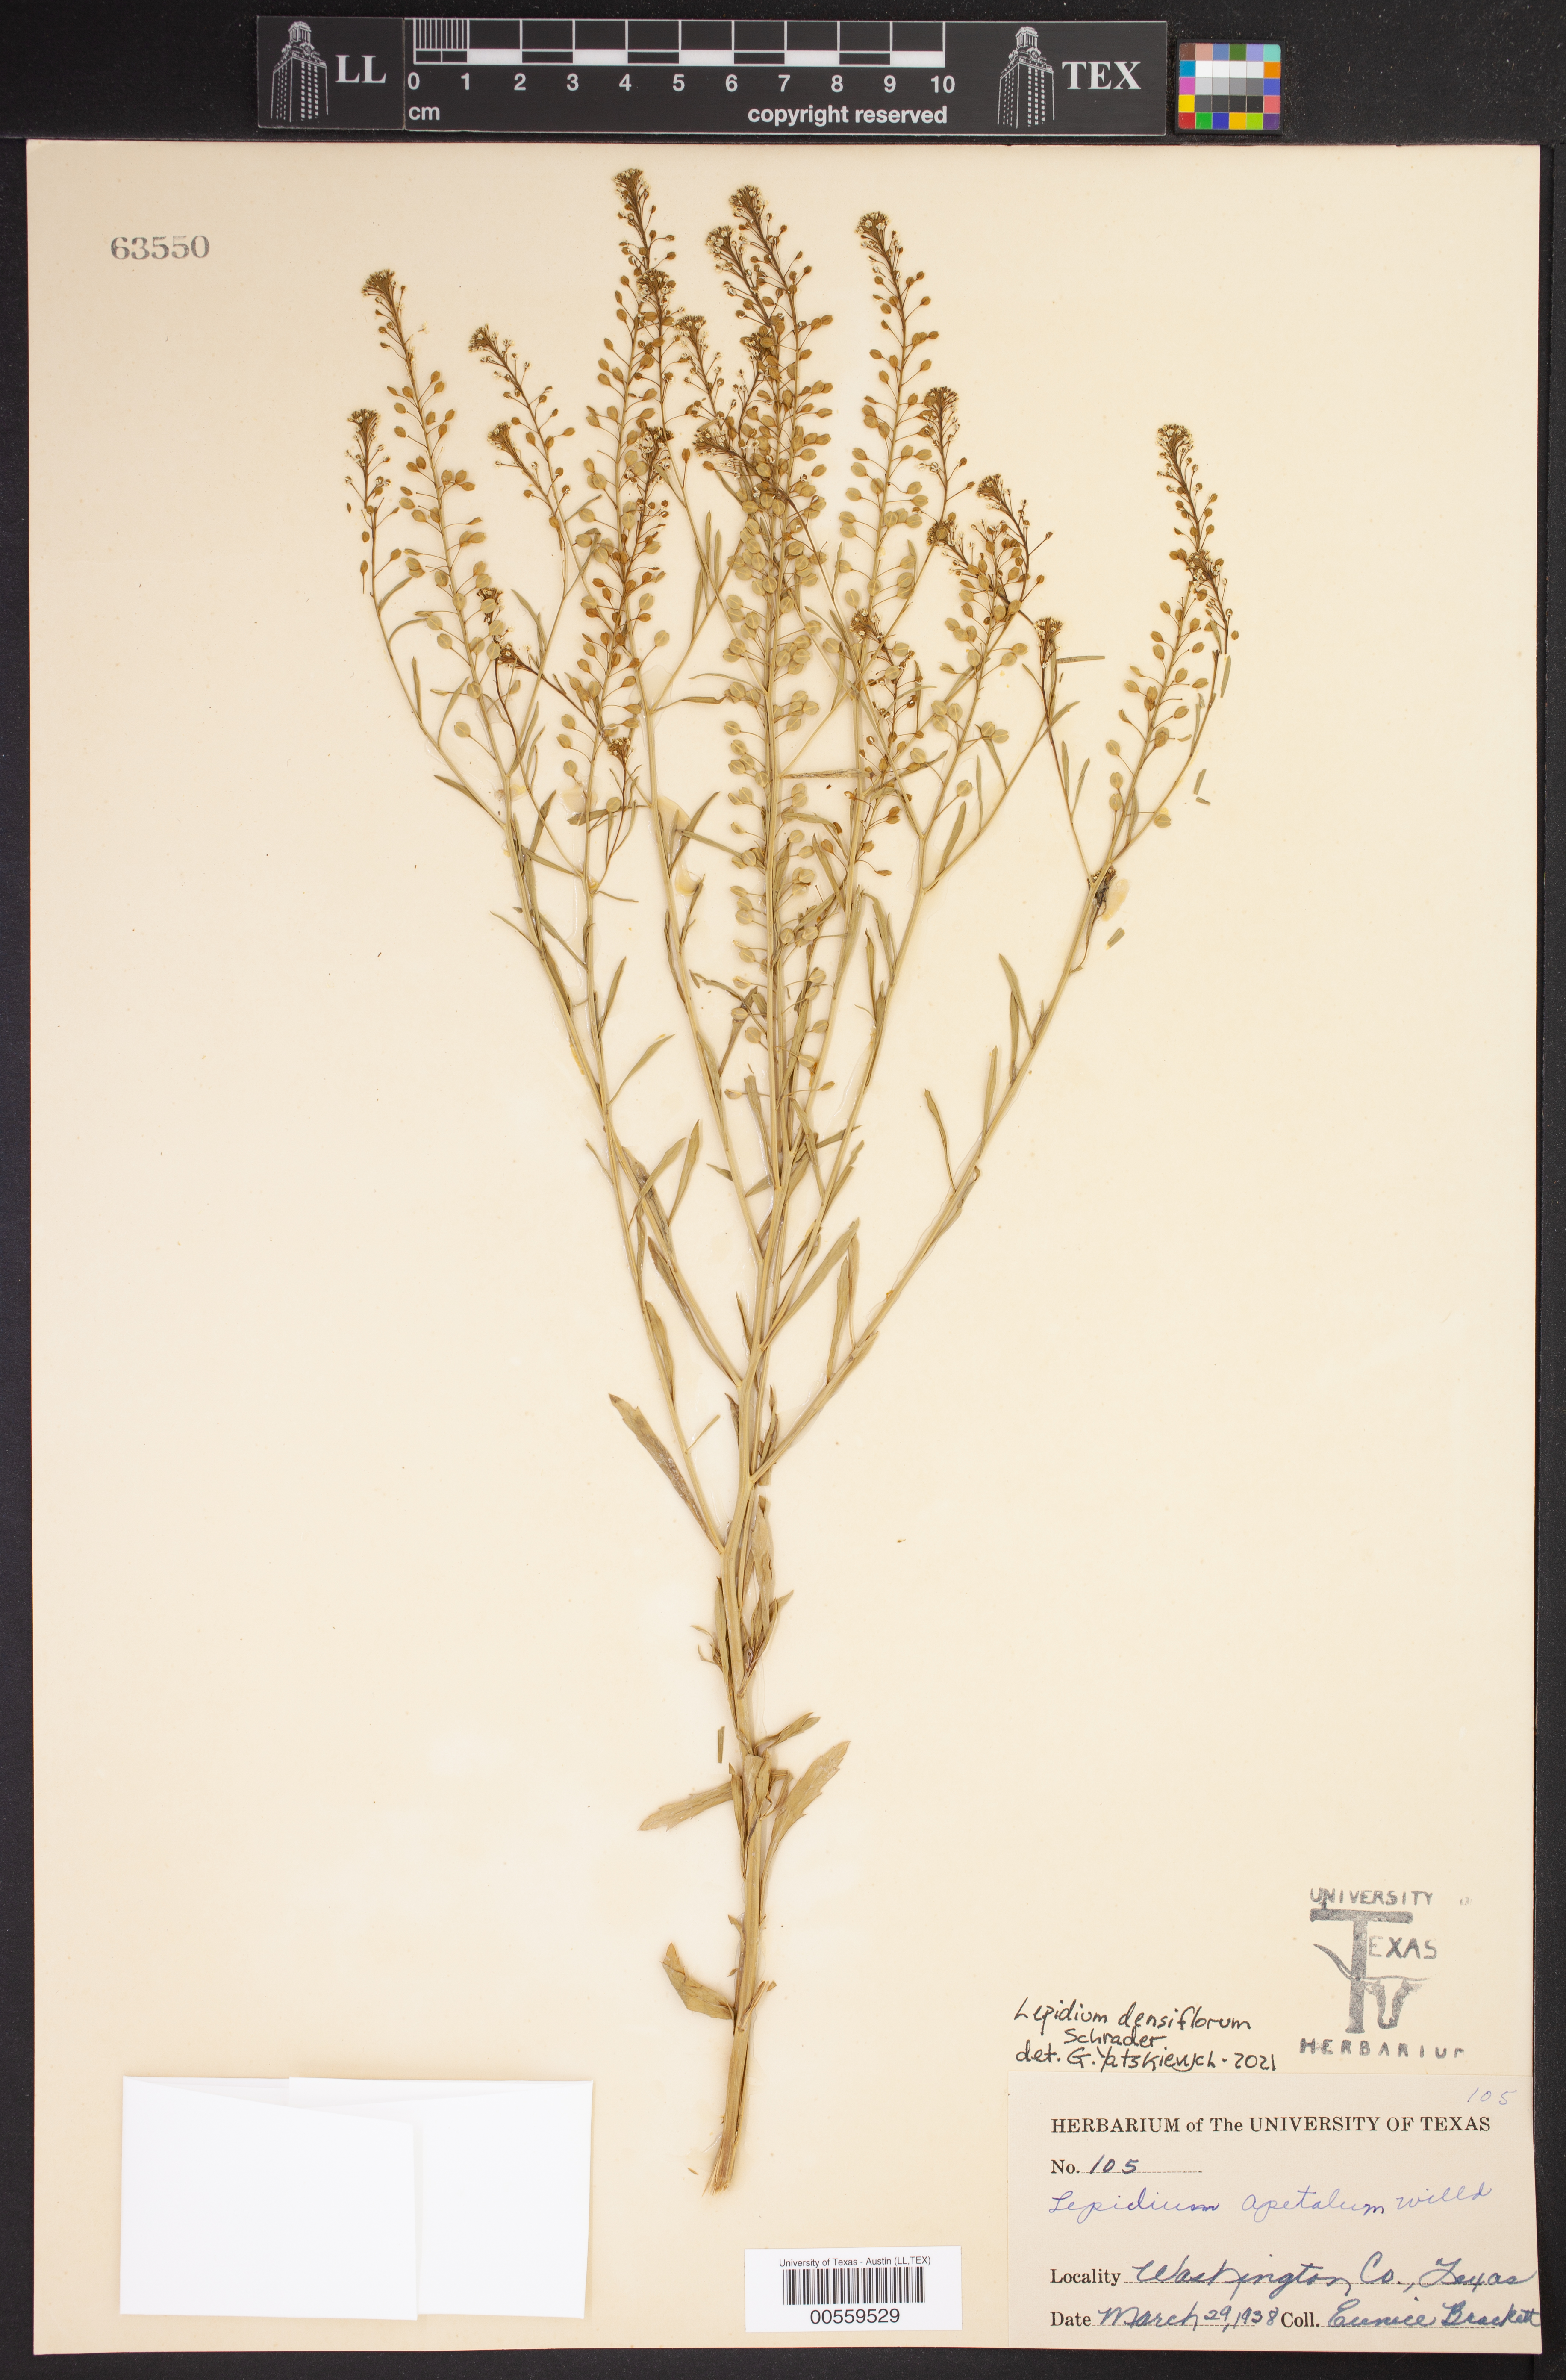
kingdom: Plantae
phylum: Tracheophyta
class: Magnoliopsida
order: Brassicales
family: Brassicaceae
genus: Lepidium
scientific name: Lepidium densiflorum
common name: Miner's pepperwort
